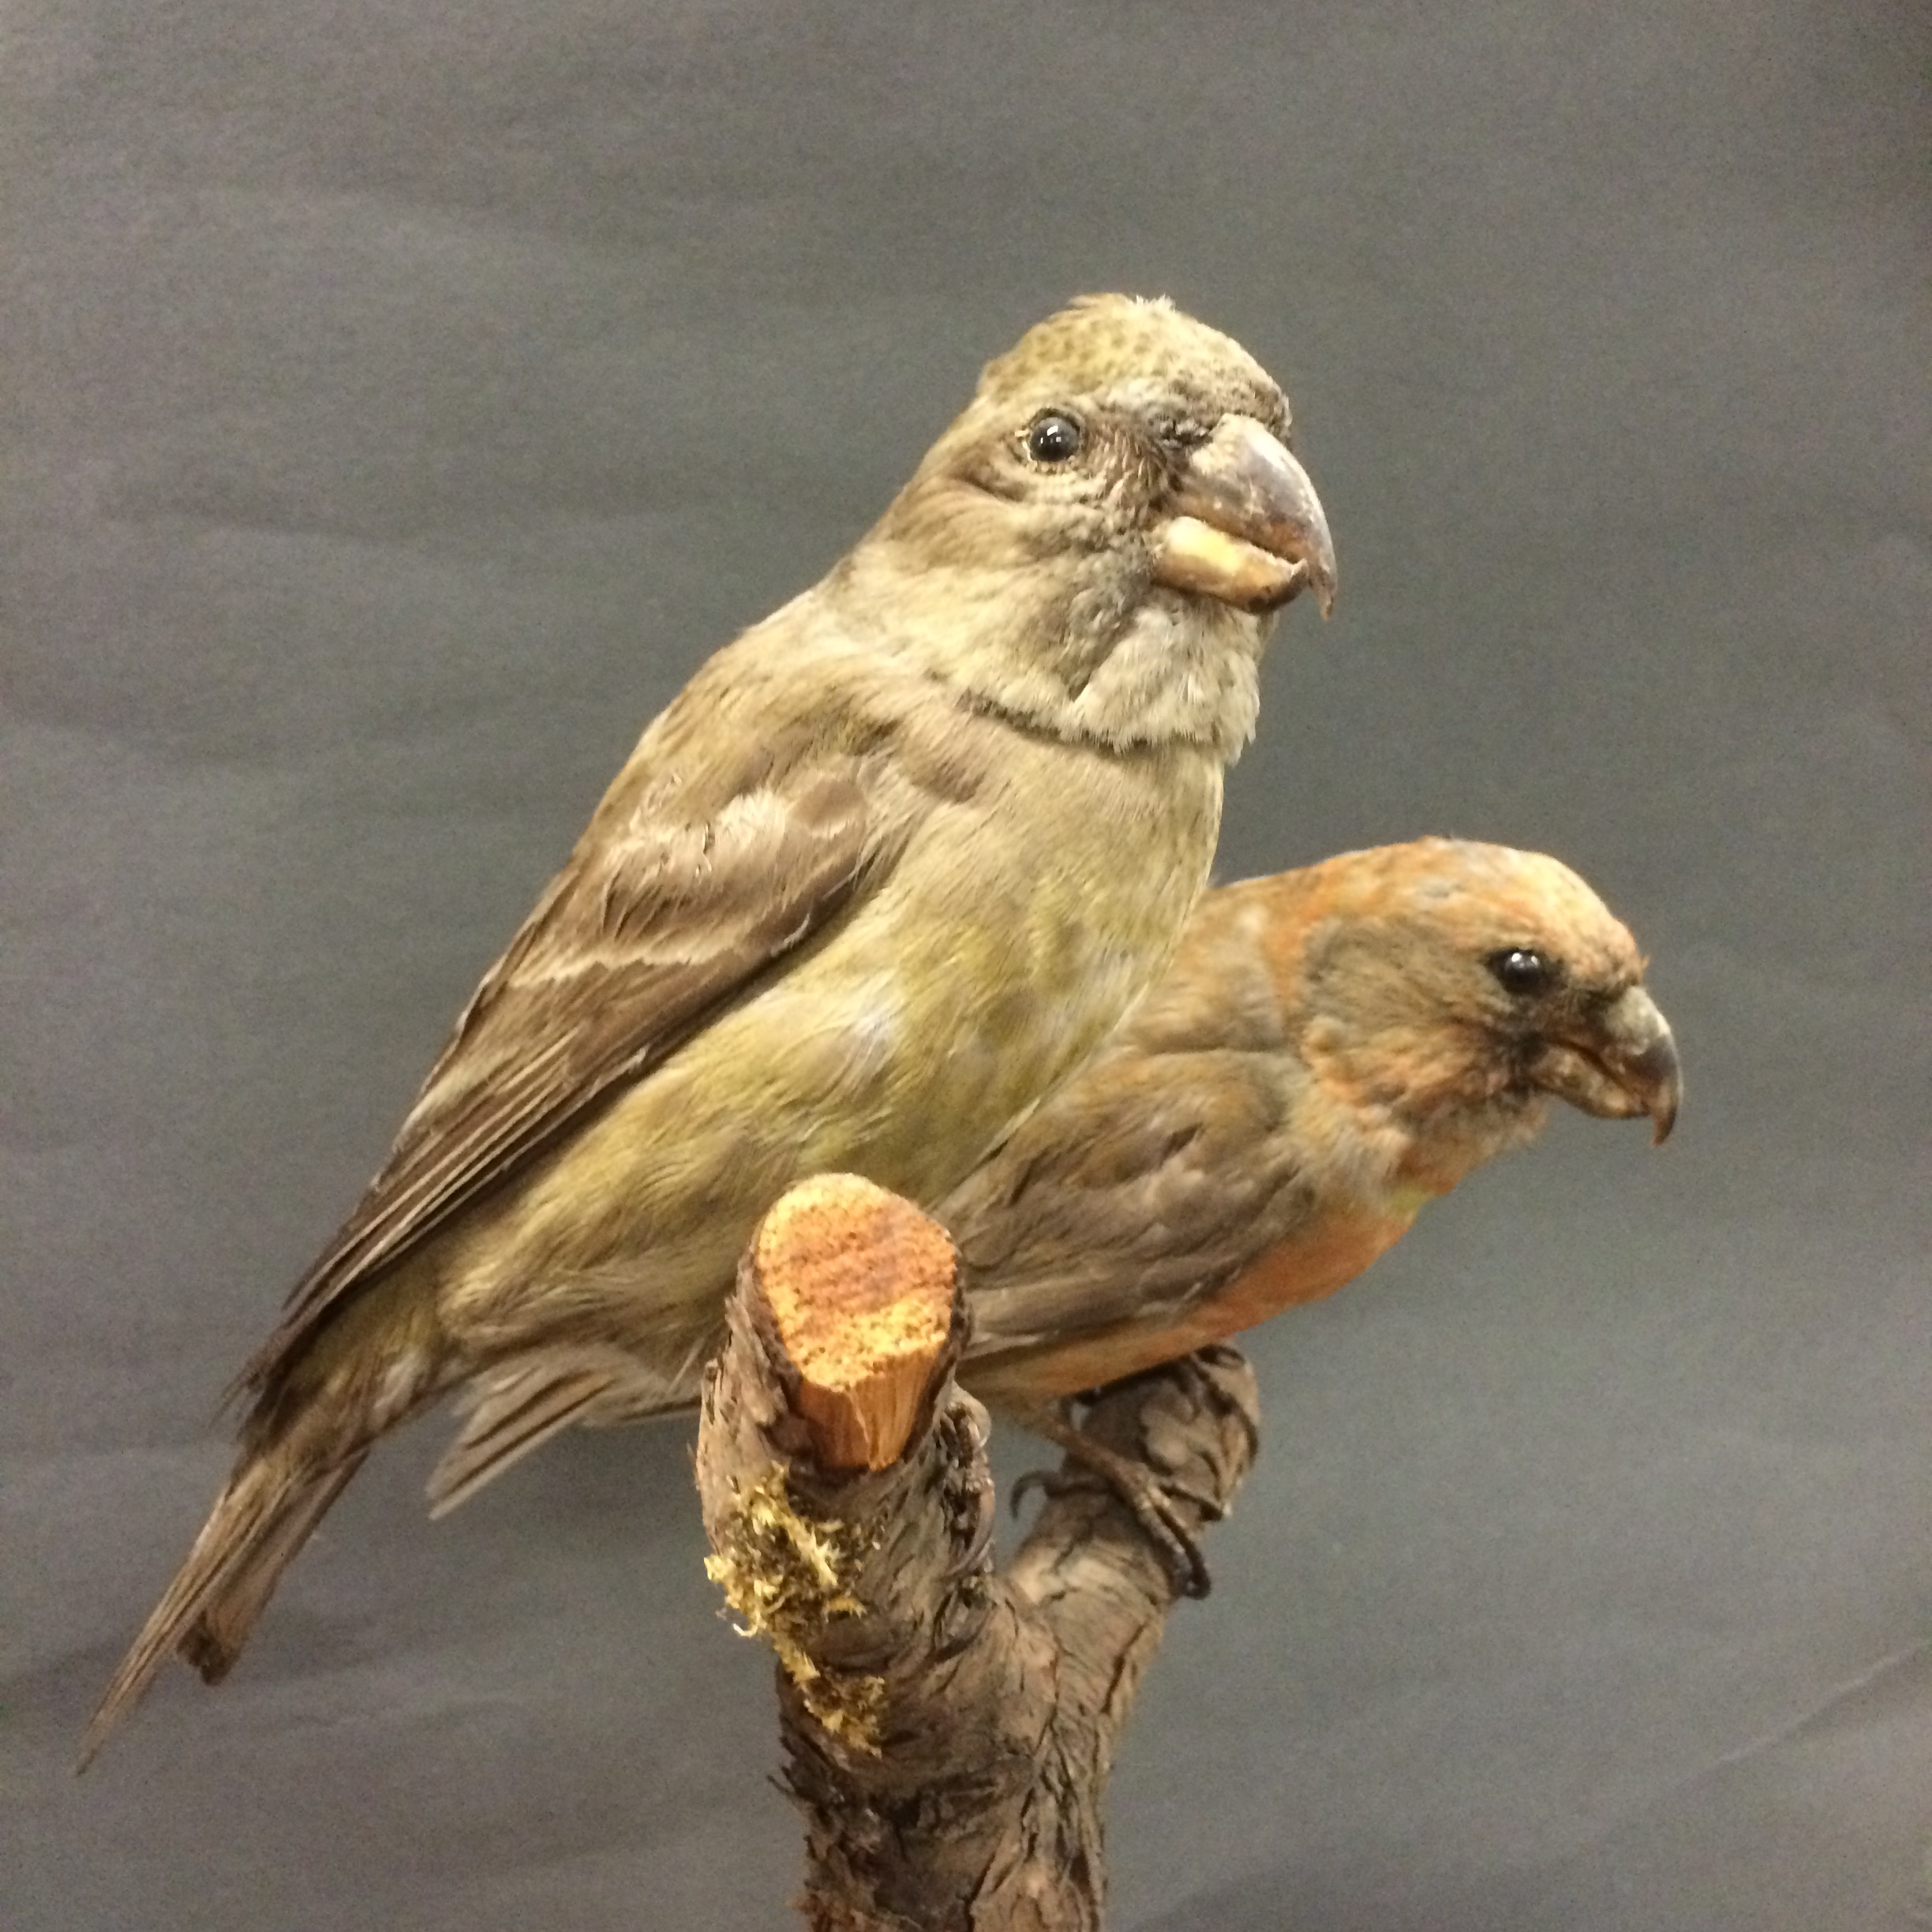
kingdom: Animalia
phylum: Chordata
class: Aves
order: Passeriformes
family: Fringillidae
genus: Loxia
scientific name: Loxia pytyopsittacus
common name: Parrot crossbill
